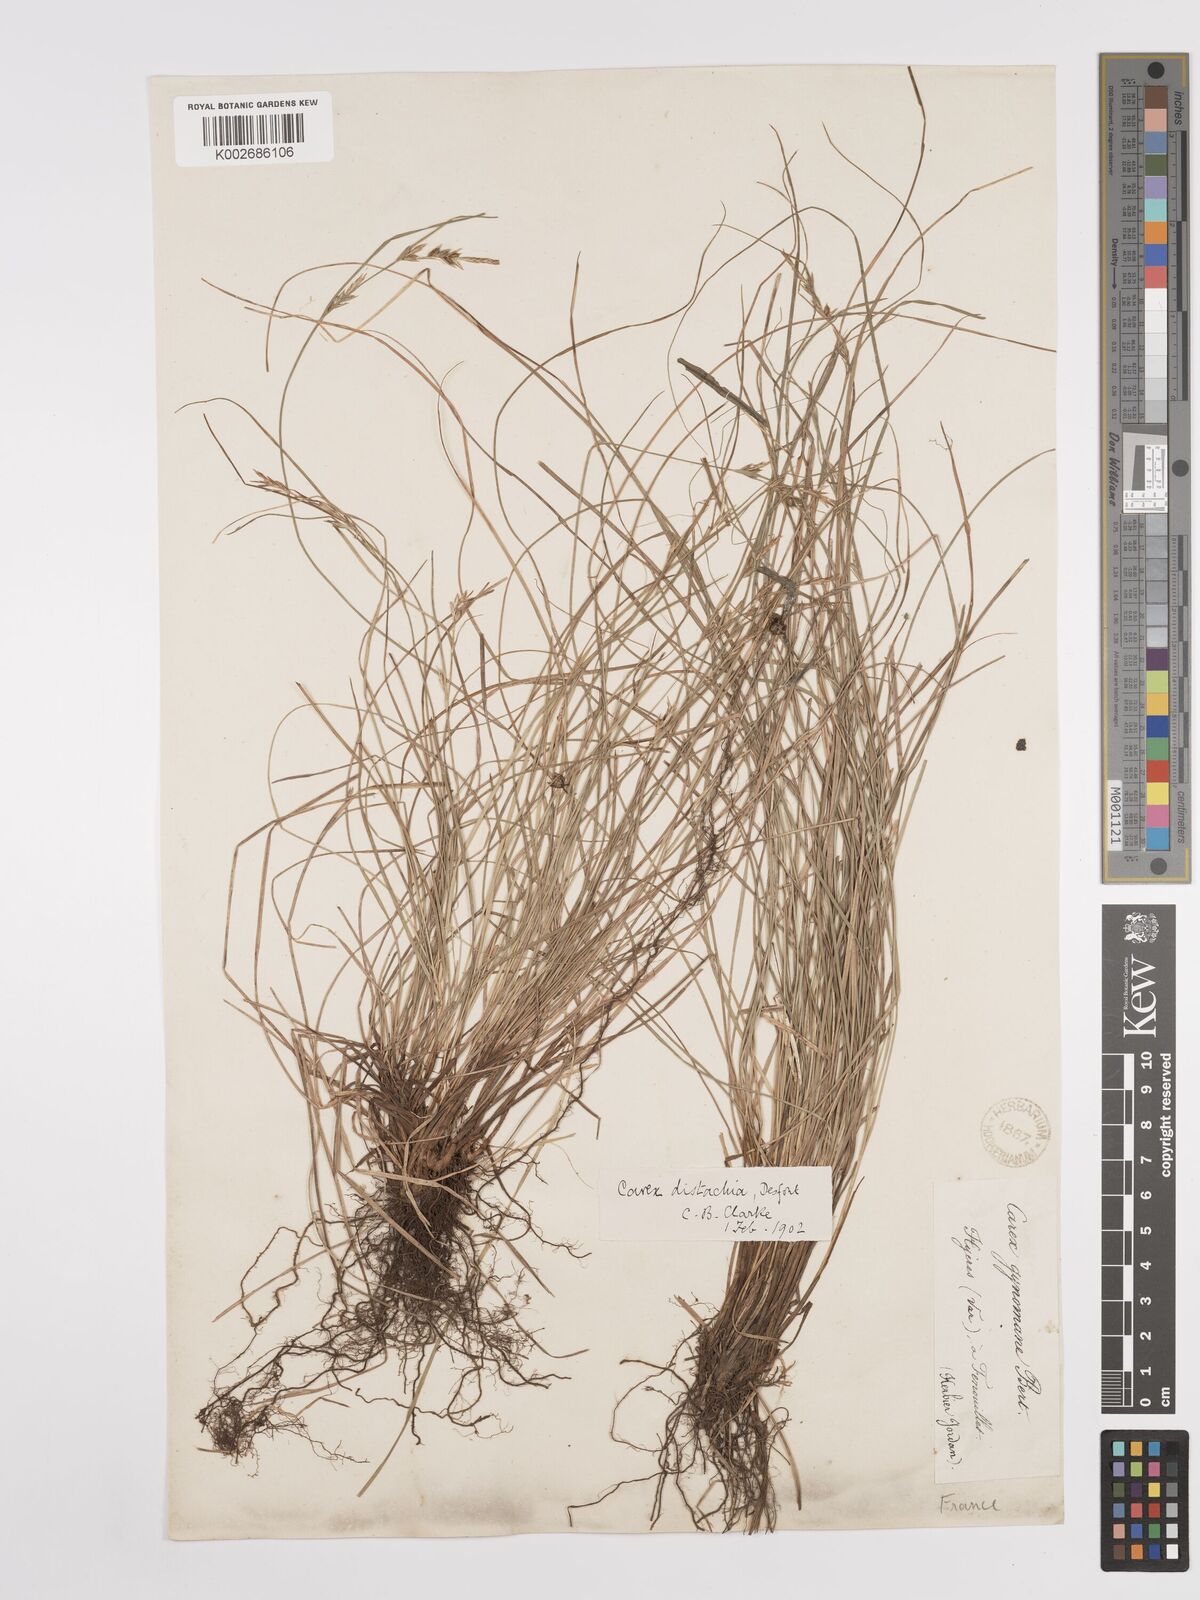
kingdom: Plantae
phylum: Tracheophyta
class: Liliopsida
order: Poales
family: Cyperaceae
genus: Carex
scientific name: Carex distachya
